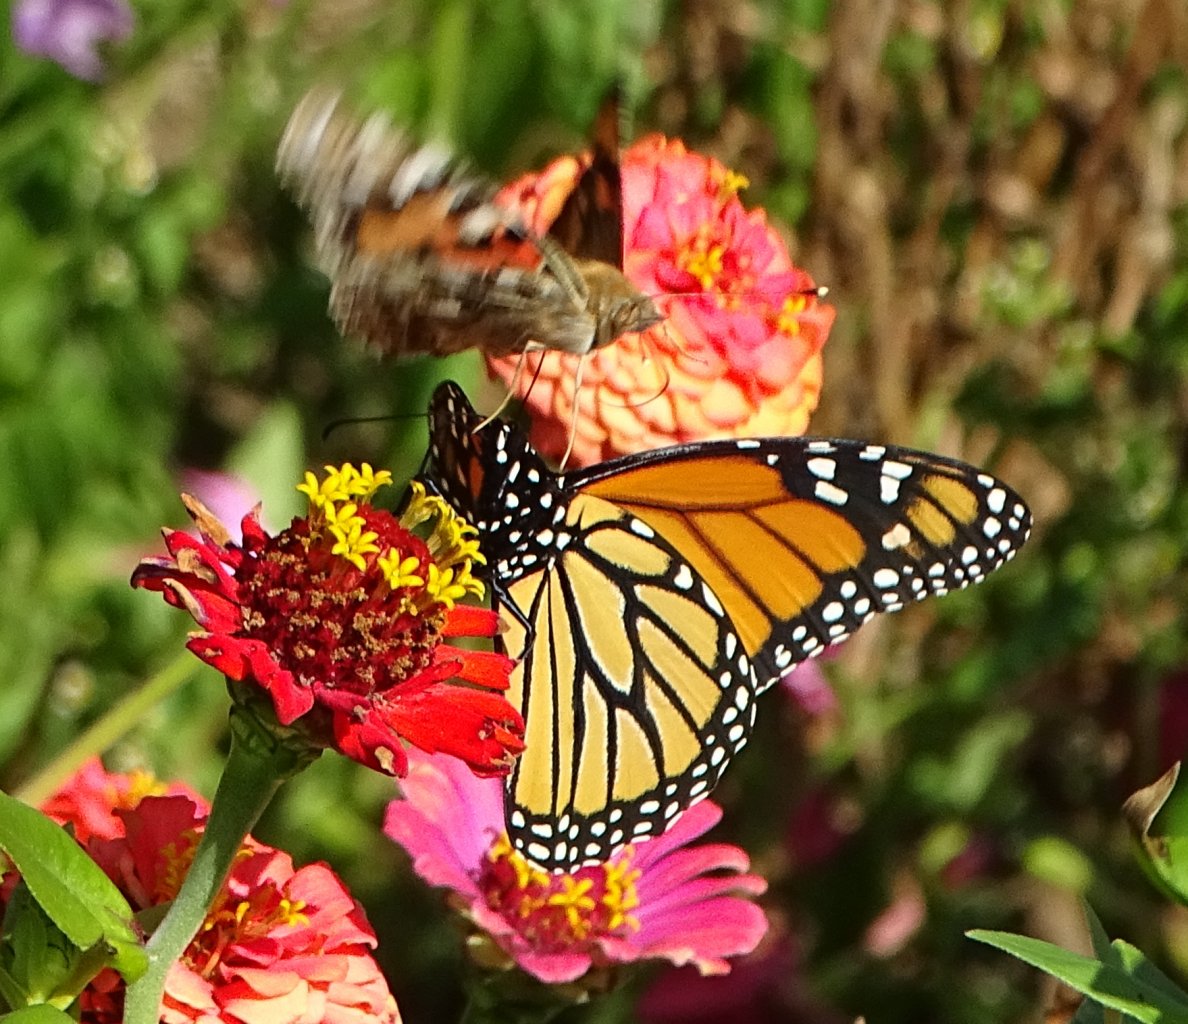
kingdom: Animalia
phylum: Arthropoda
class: Insecta
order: Lepidoptera
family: Nymphalidae
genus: Danaus
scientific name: Danaus plexippus
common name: Monarch
